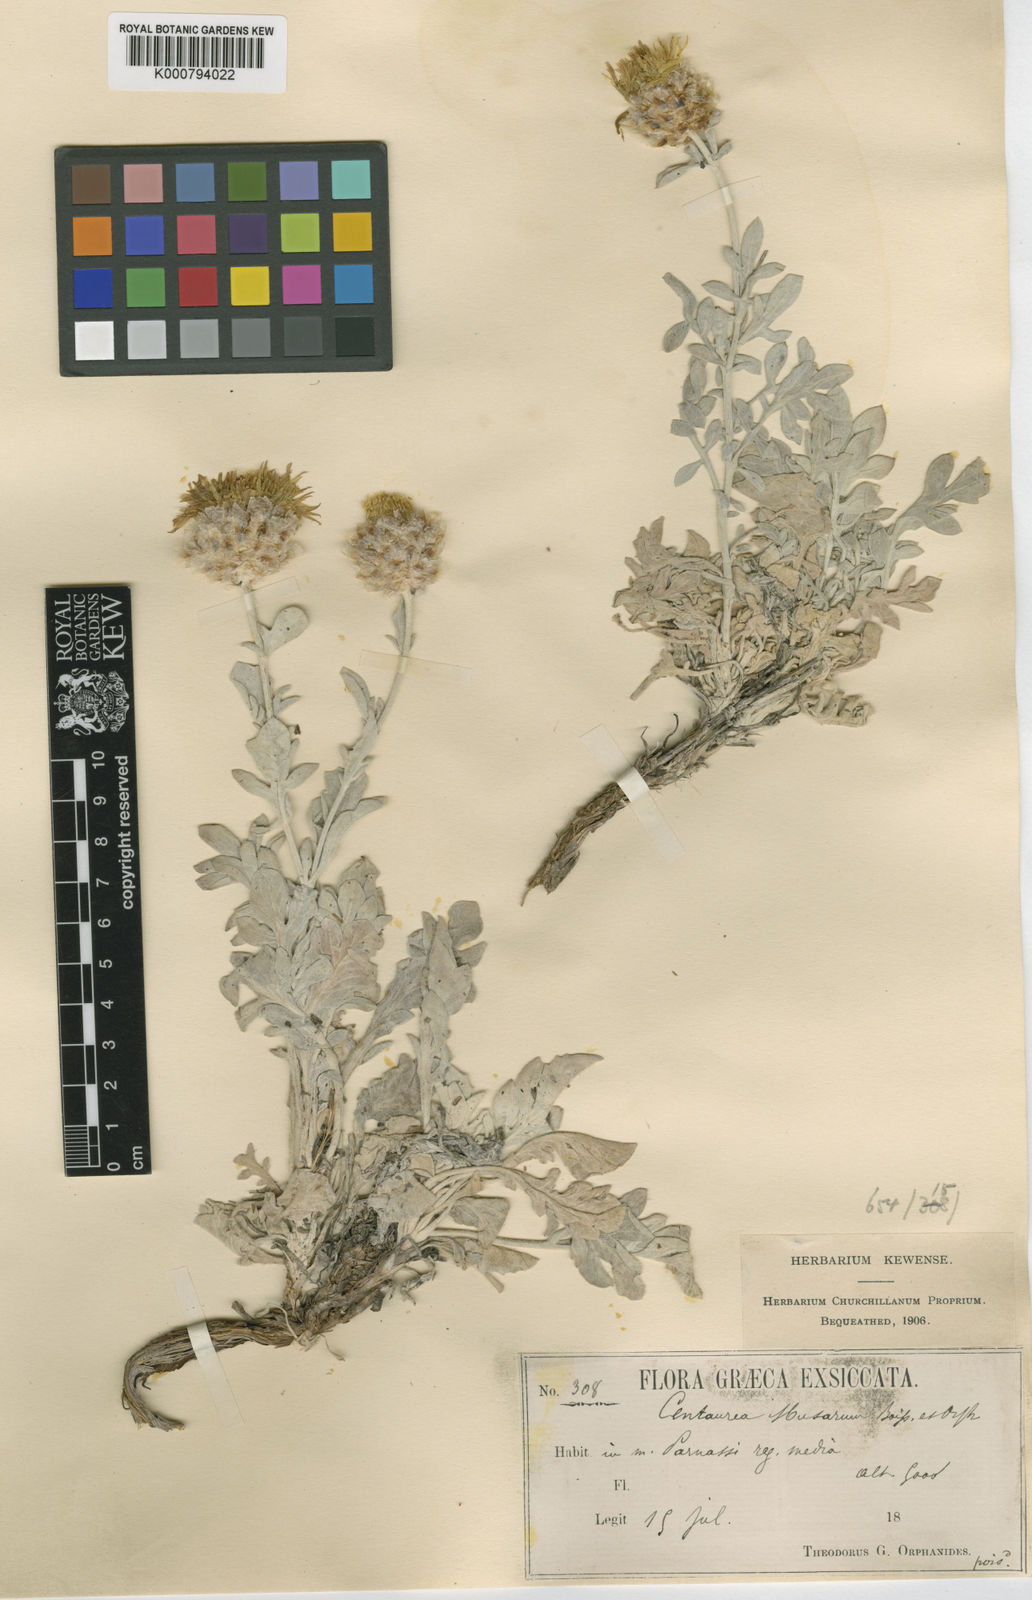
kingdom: Plantae
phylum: Tracheophyta
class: Magnoliopsida
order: Asterales
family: Asteraceae
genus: Centaurea
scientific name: Centaurea musarum
